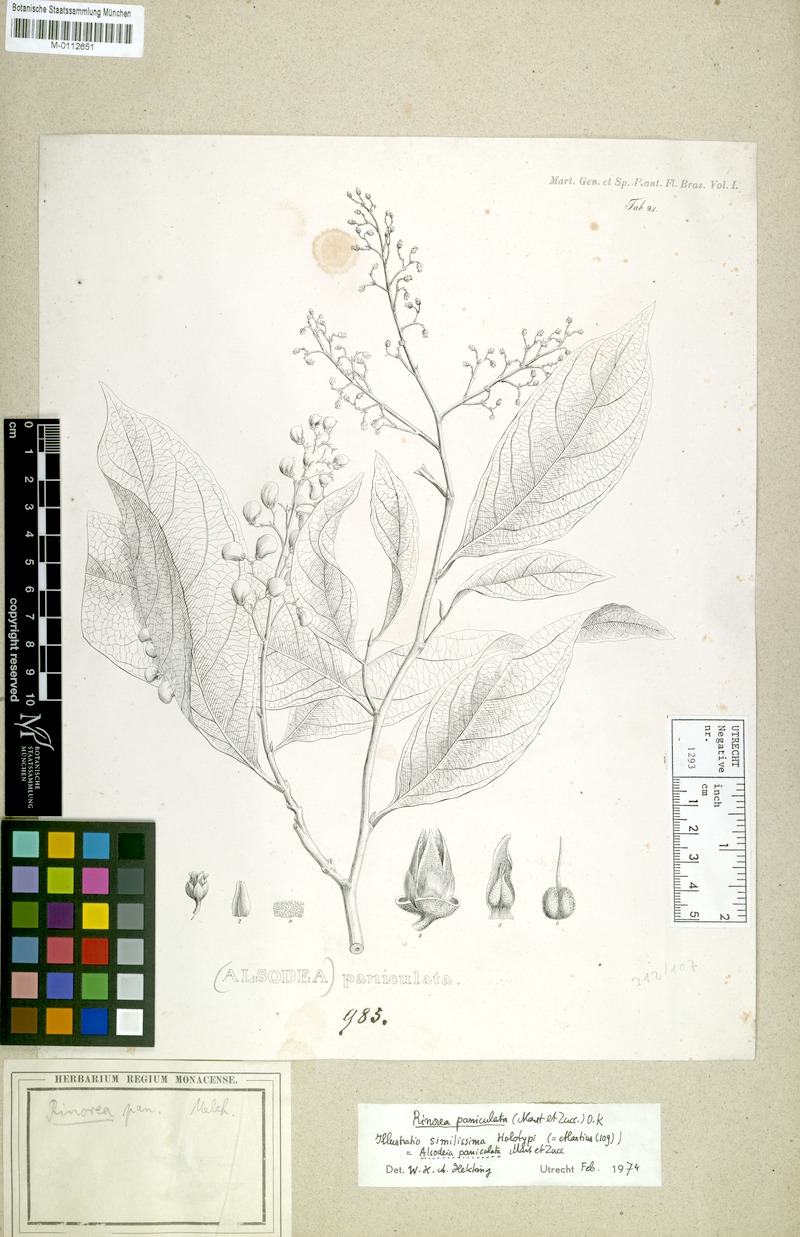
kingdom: Plantae
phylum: Tracheophyta
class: Magnoliopsida
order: Malpighiales
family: Violaceae
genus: Rinorea
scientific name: Rinorea paniculata
